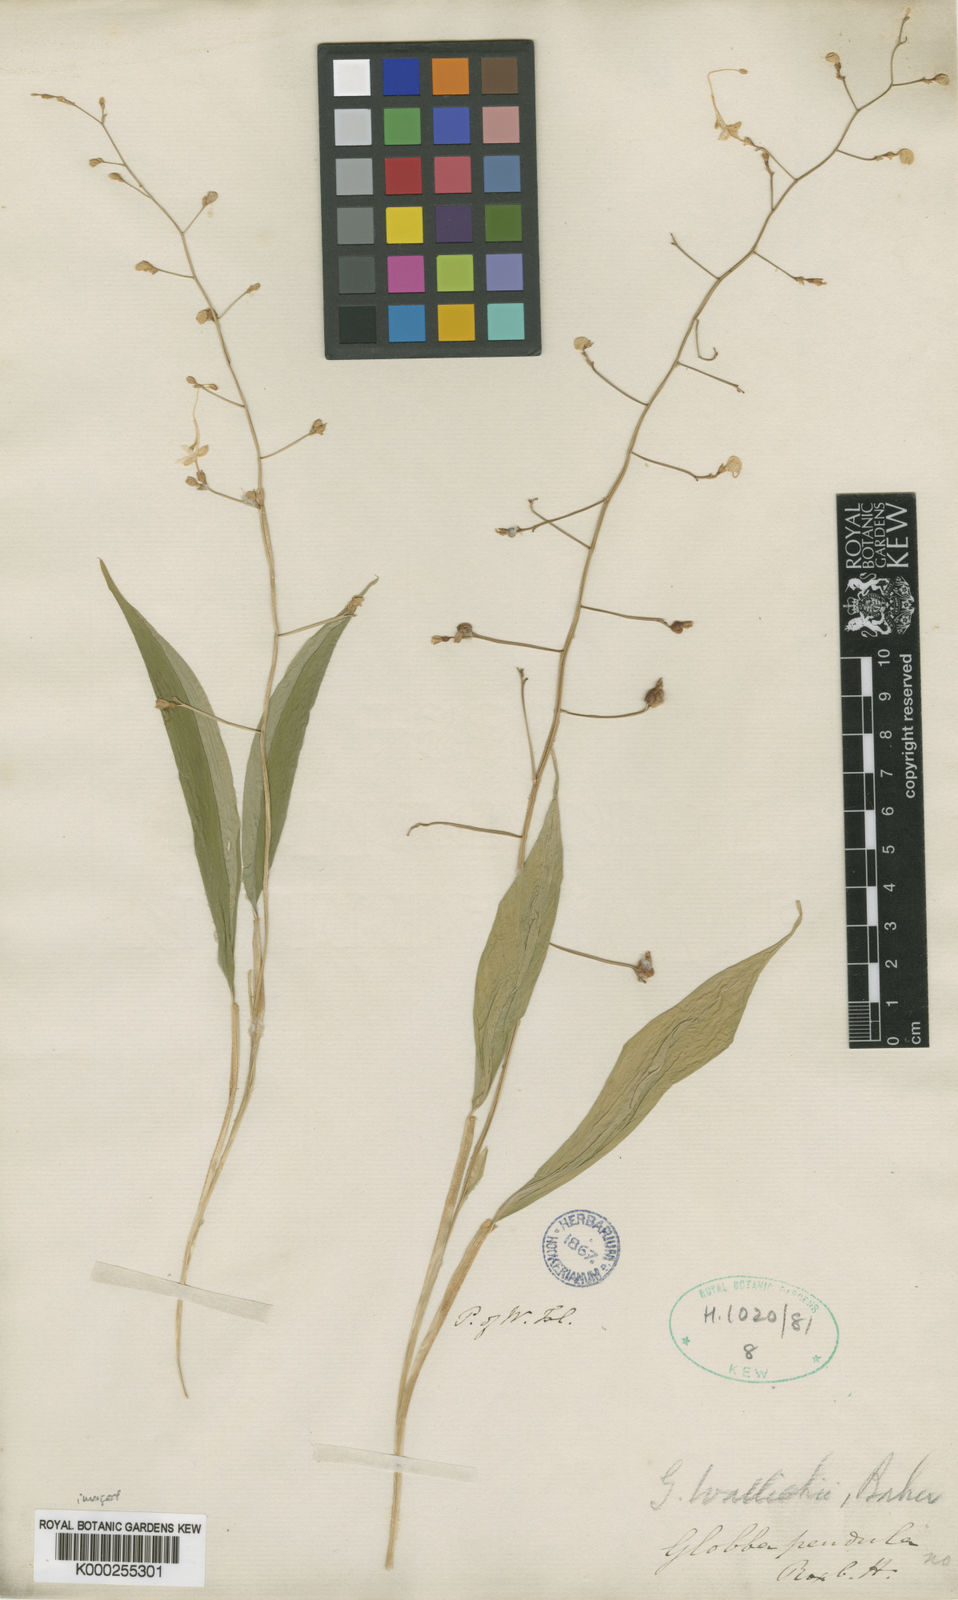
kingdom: Plantae
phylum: Tracheophyta
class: Liliopsida
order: Zingiberales
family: Zingiberaceae
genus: Globba
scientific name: Globba pendula
